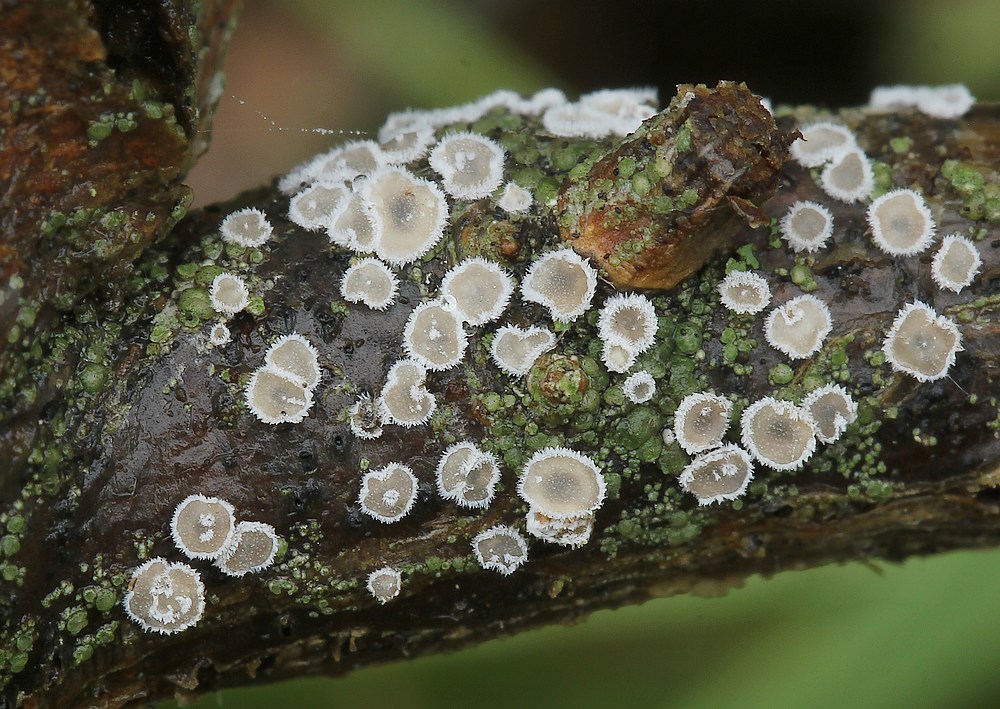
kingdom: Fungi
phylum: Basidiomycota
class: Agaricomycetes
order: Agaricales
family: Niaceae
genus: Lachnella
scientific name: Lachnella alboviolascens
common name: grå frynserede
